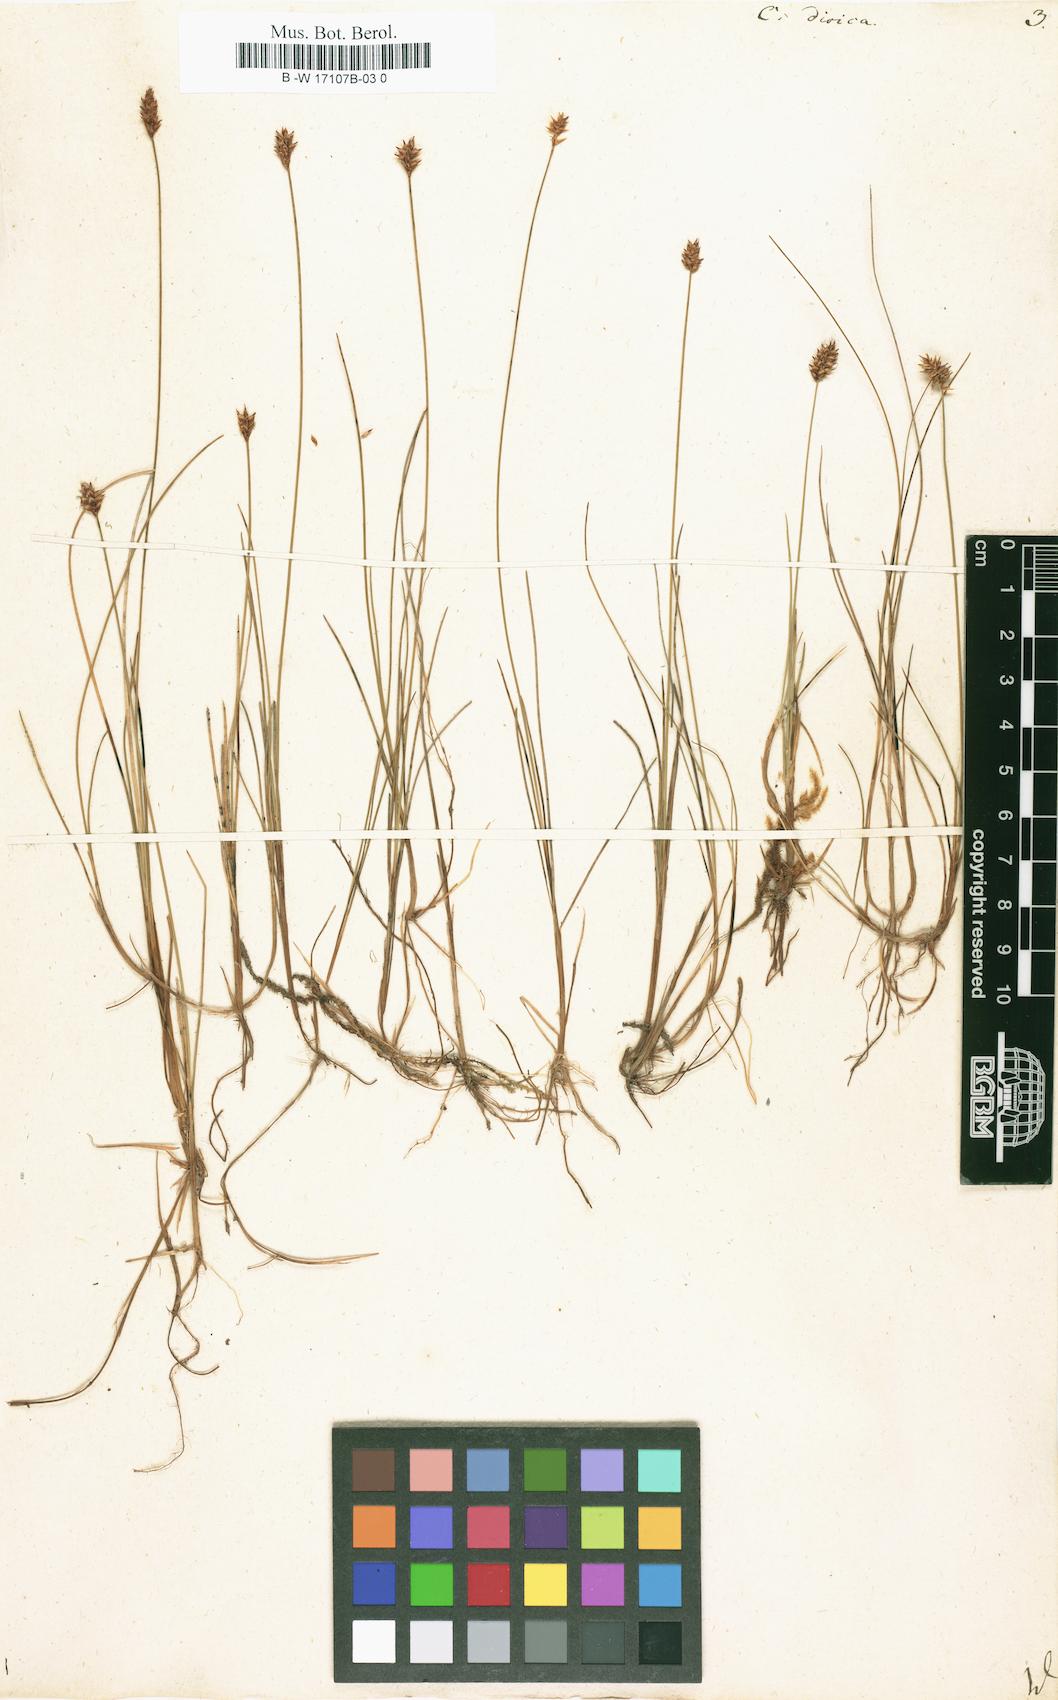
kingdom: Plantae
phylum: Tracheophyta
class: Liliopsida
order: Poales
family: Cyperaceae
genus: Carex
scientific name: Carex dioica
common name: Dioecious sedge
